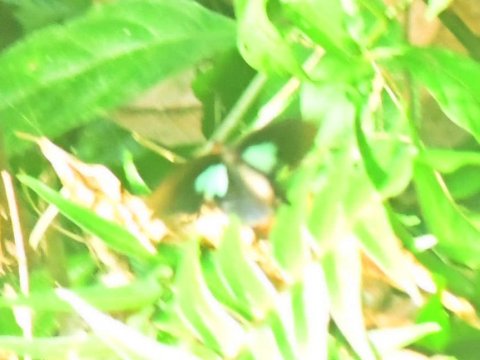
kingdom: Animalia
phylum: Arthropoda
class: Insecta
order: Lepidoptera
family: Papilionidae
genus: Parides
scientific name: Parides
